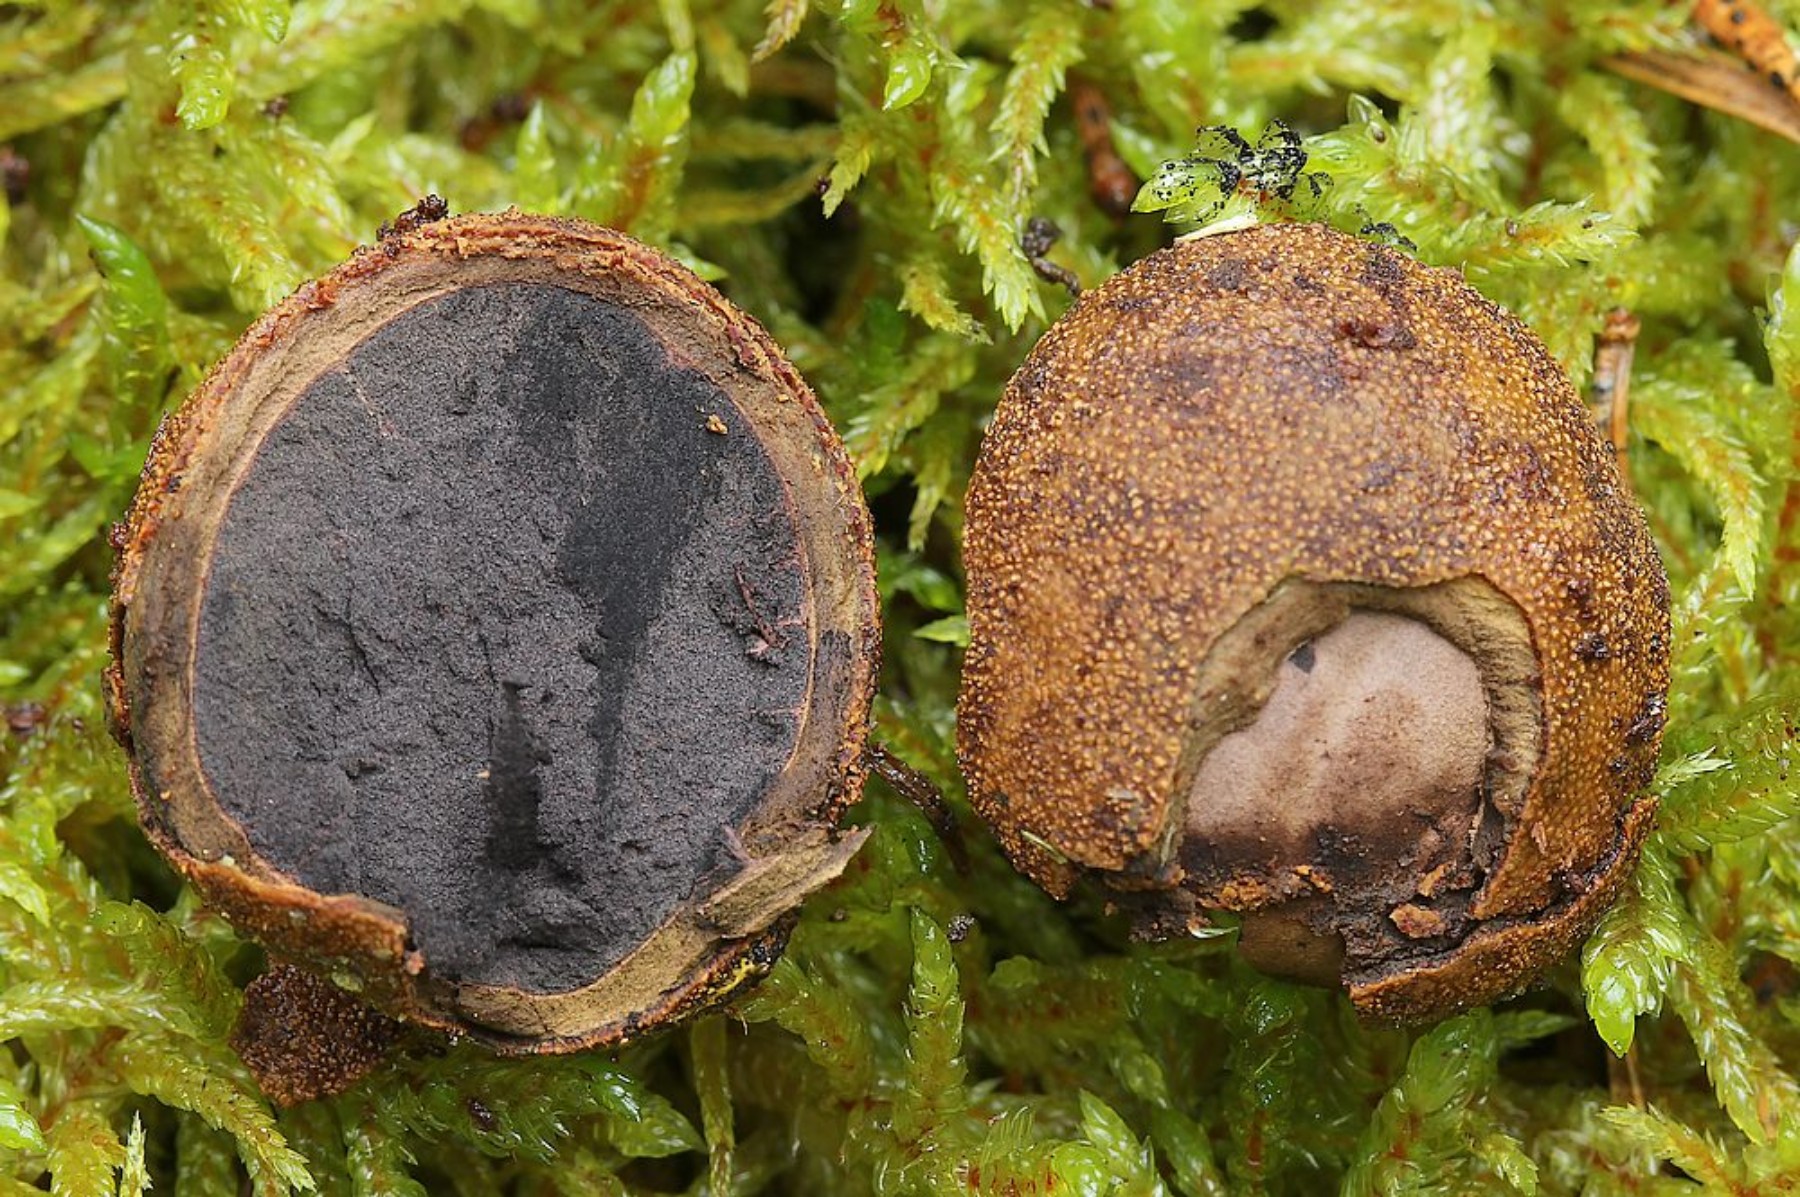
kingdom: Fungi
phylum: Ascomycota
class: Eurotiomycetes
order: Eurotiales
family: Elaphomycetaceae
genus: Elaphomyces
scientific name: Elaphomyces asperulus
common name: vinrød hjortetrøffel
